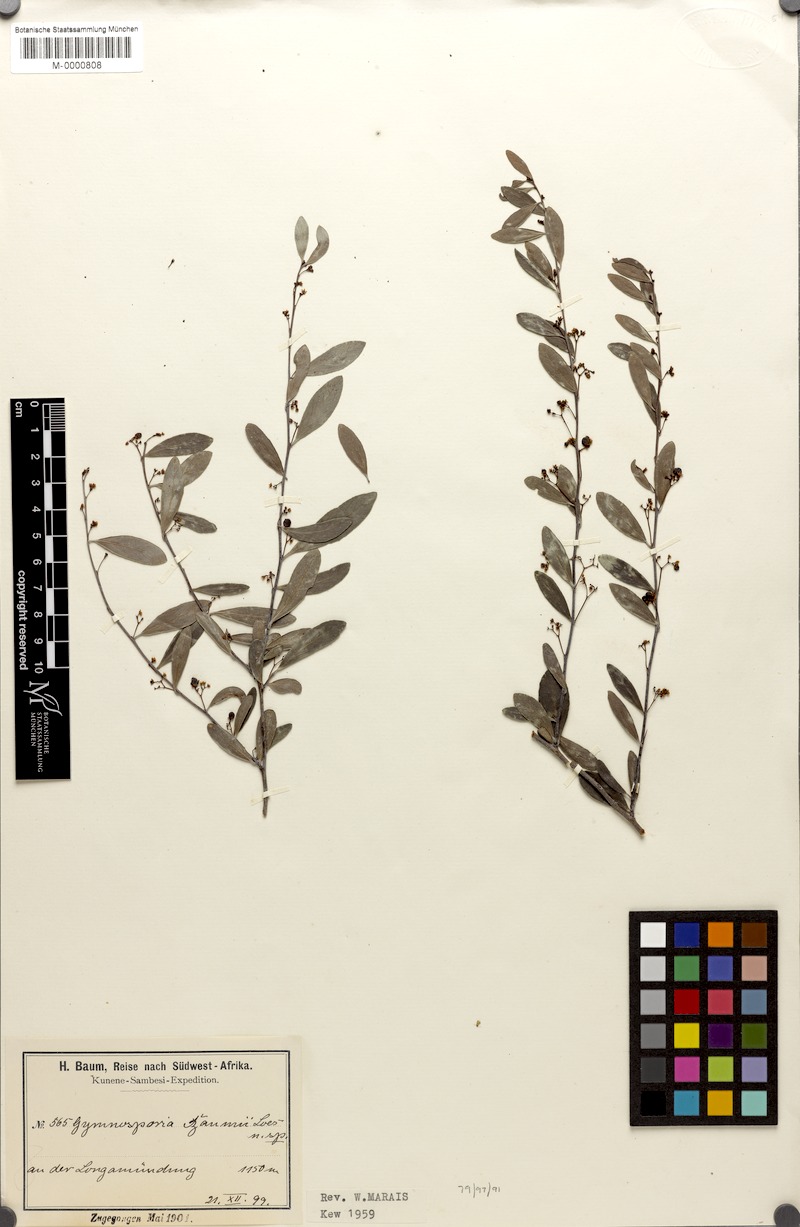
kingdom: Plantae
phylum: Tracheophyta
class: Magnoliopsida
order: Celastrales
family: Celastraceae
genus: Gymnosporia
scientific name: Gymnosporia senegalensis
